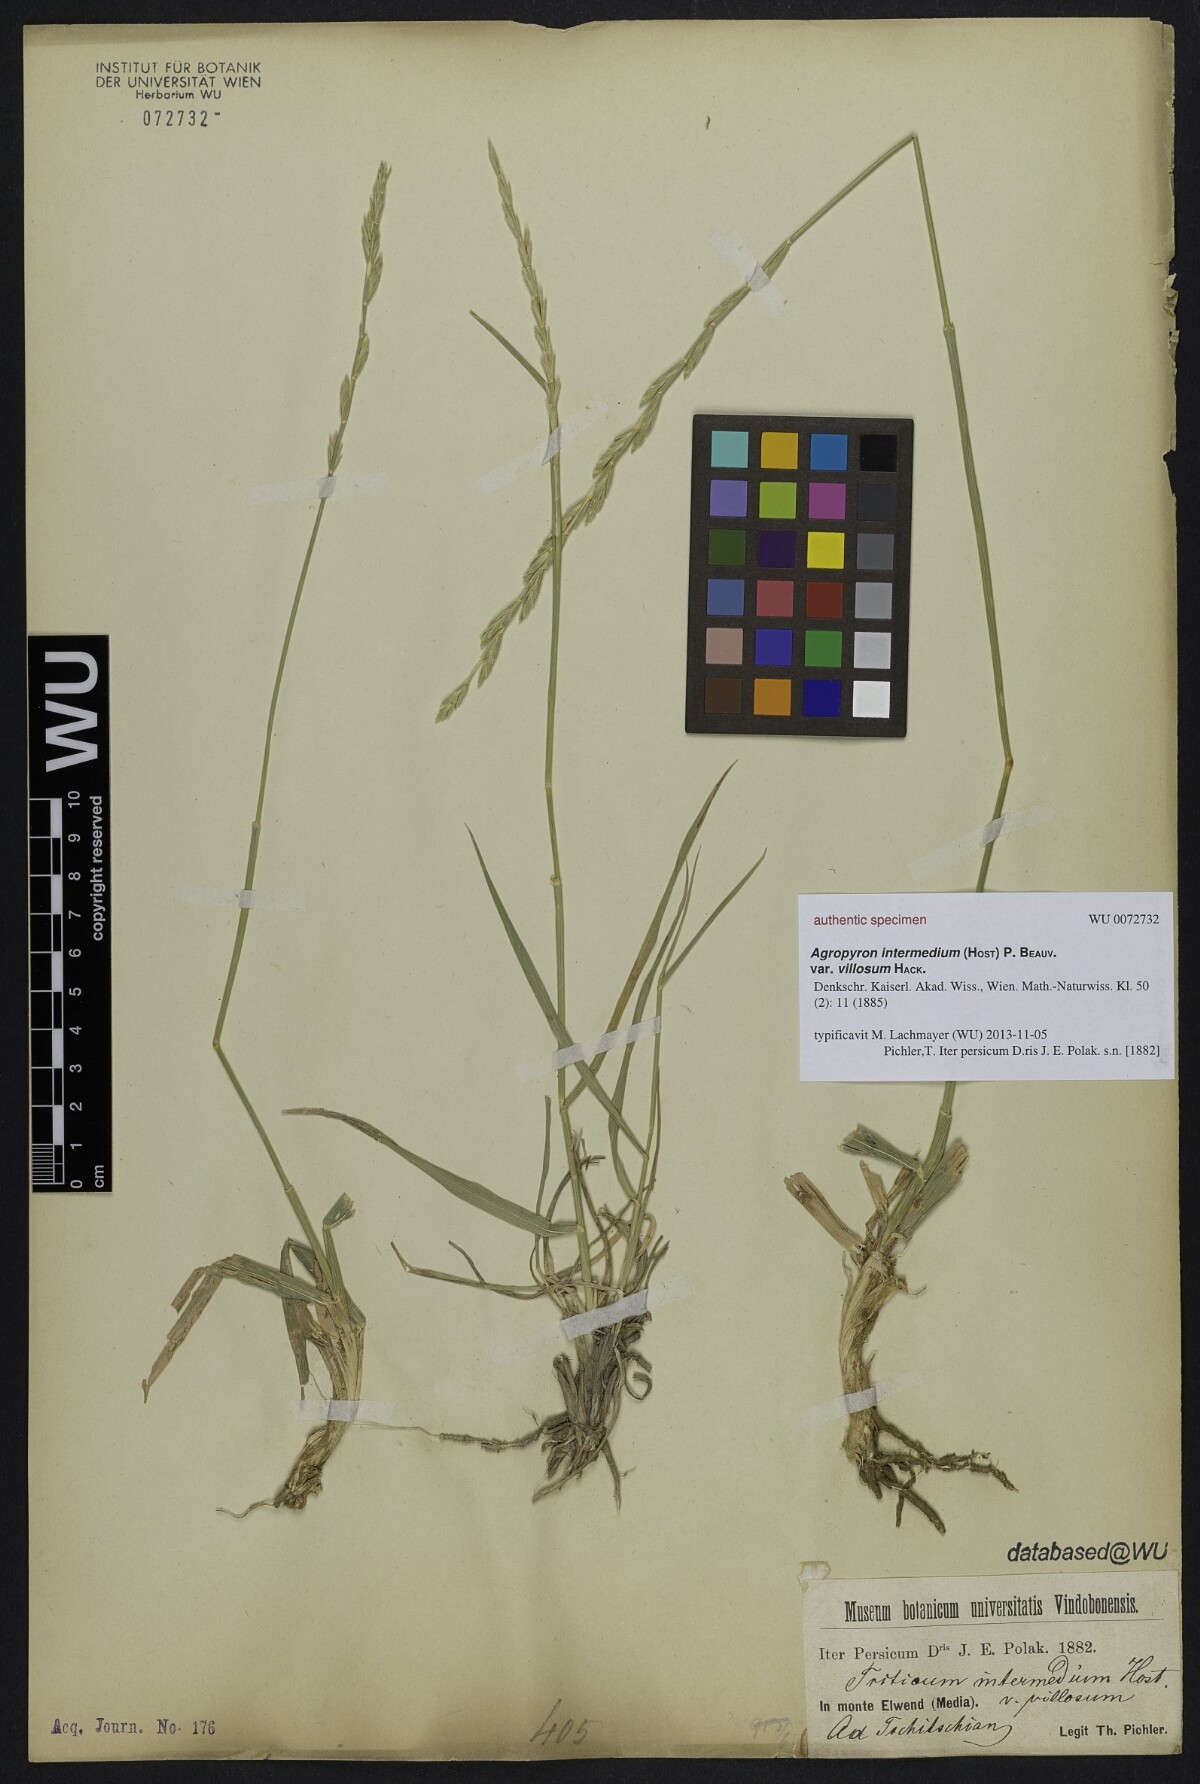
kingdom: Plantae
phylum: Tracheophyta
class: Liliopsida
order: Poales
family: Poaceae
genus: Thinopyrum
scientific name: Thinopyrum intermedium
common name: Intermediate wheatgrass
